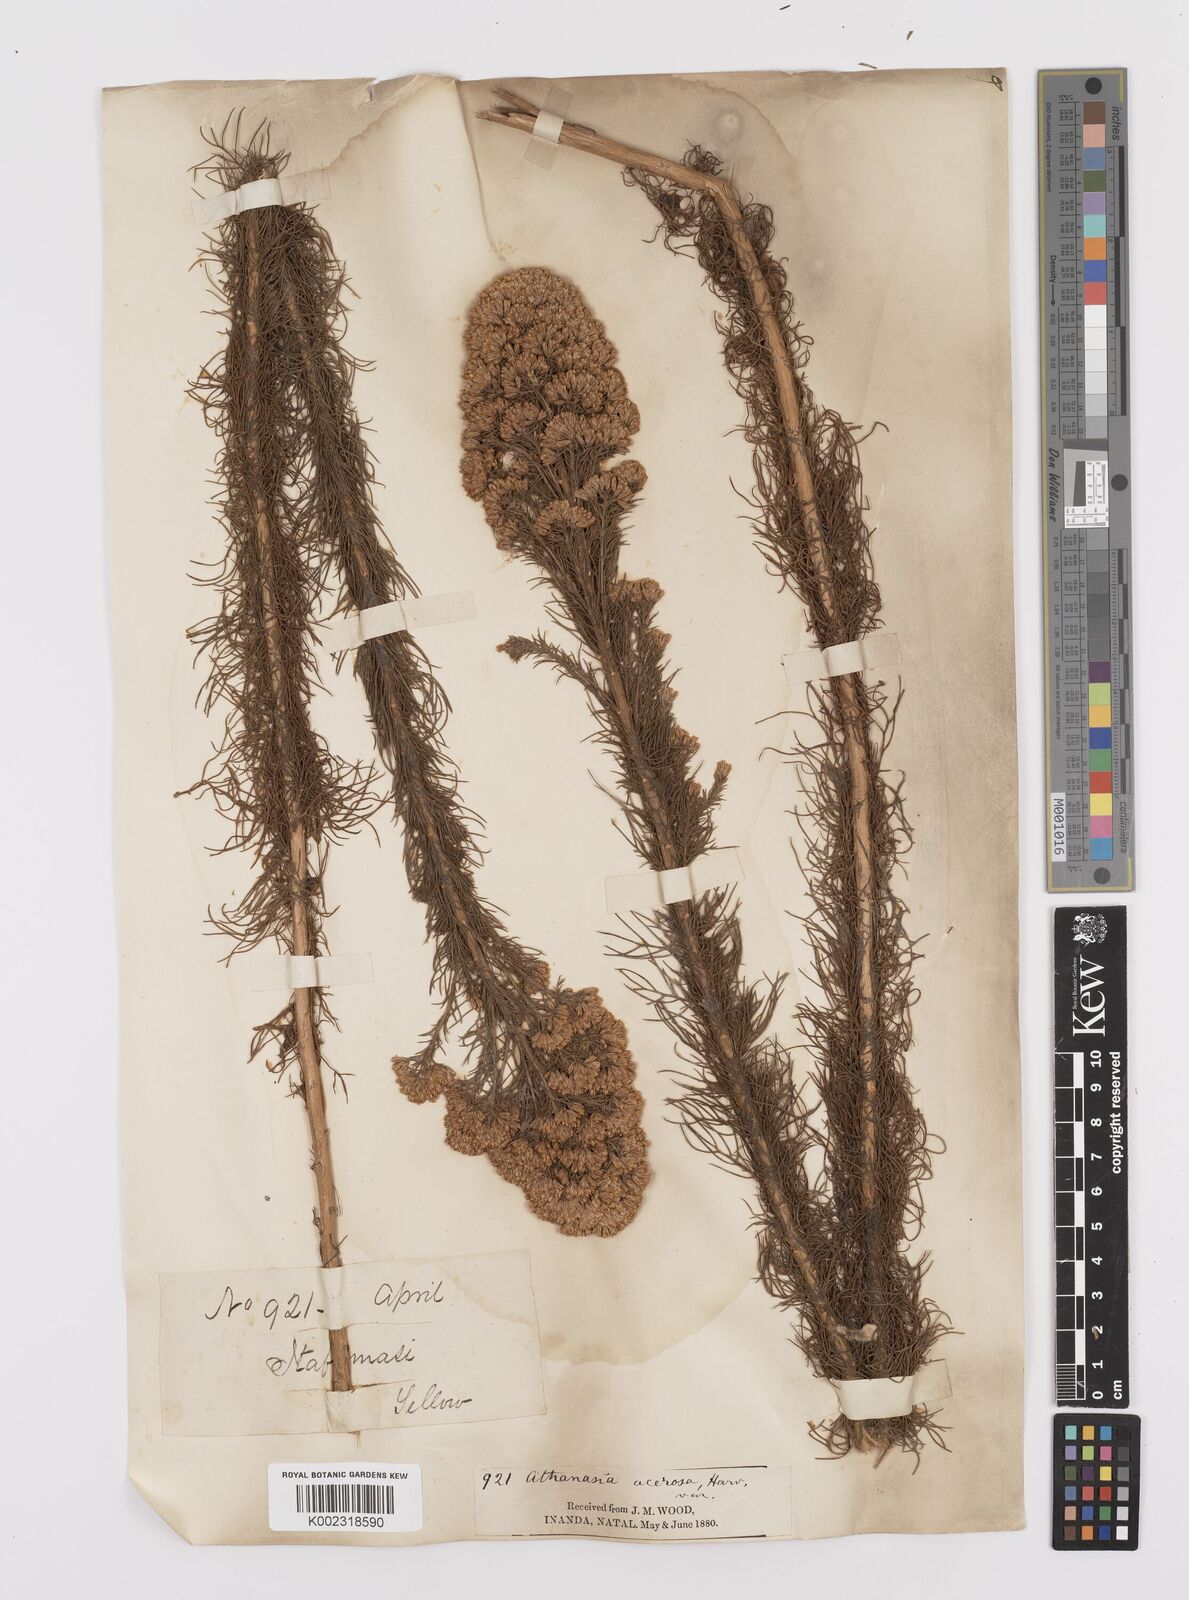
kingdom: Plantae
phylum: Tracheophyta
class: Magnoliopsida
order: Asterales
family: Asteraceae
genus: Phymaspermum
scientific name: Phymaspermum acerosum
